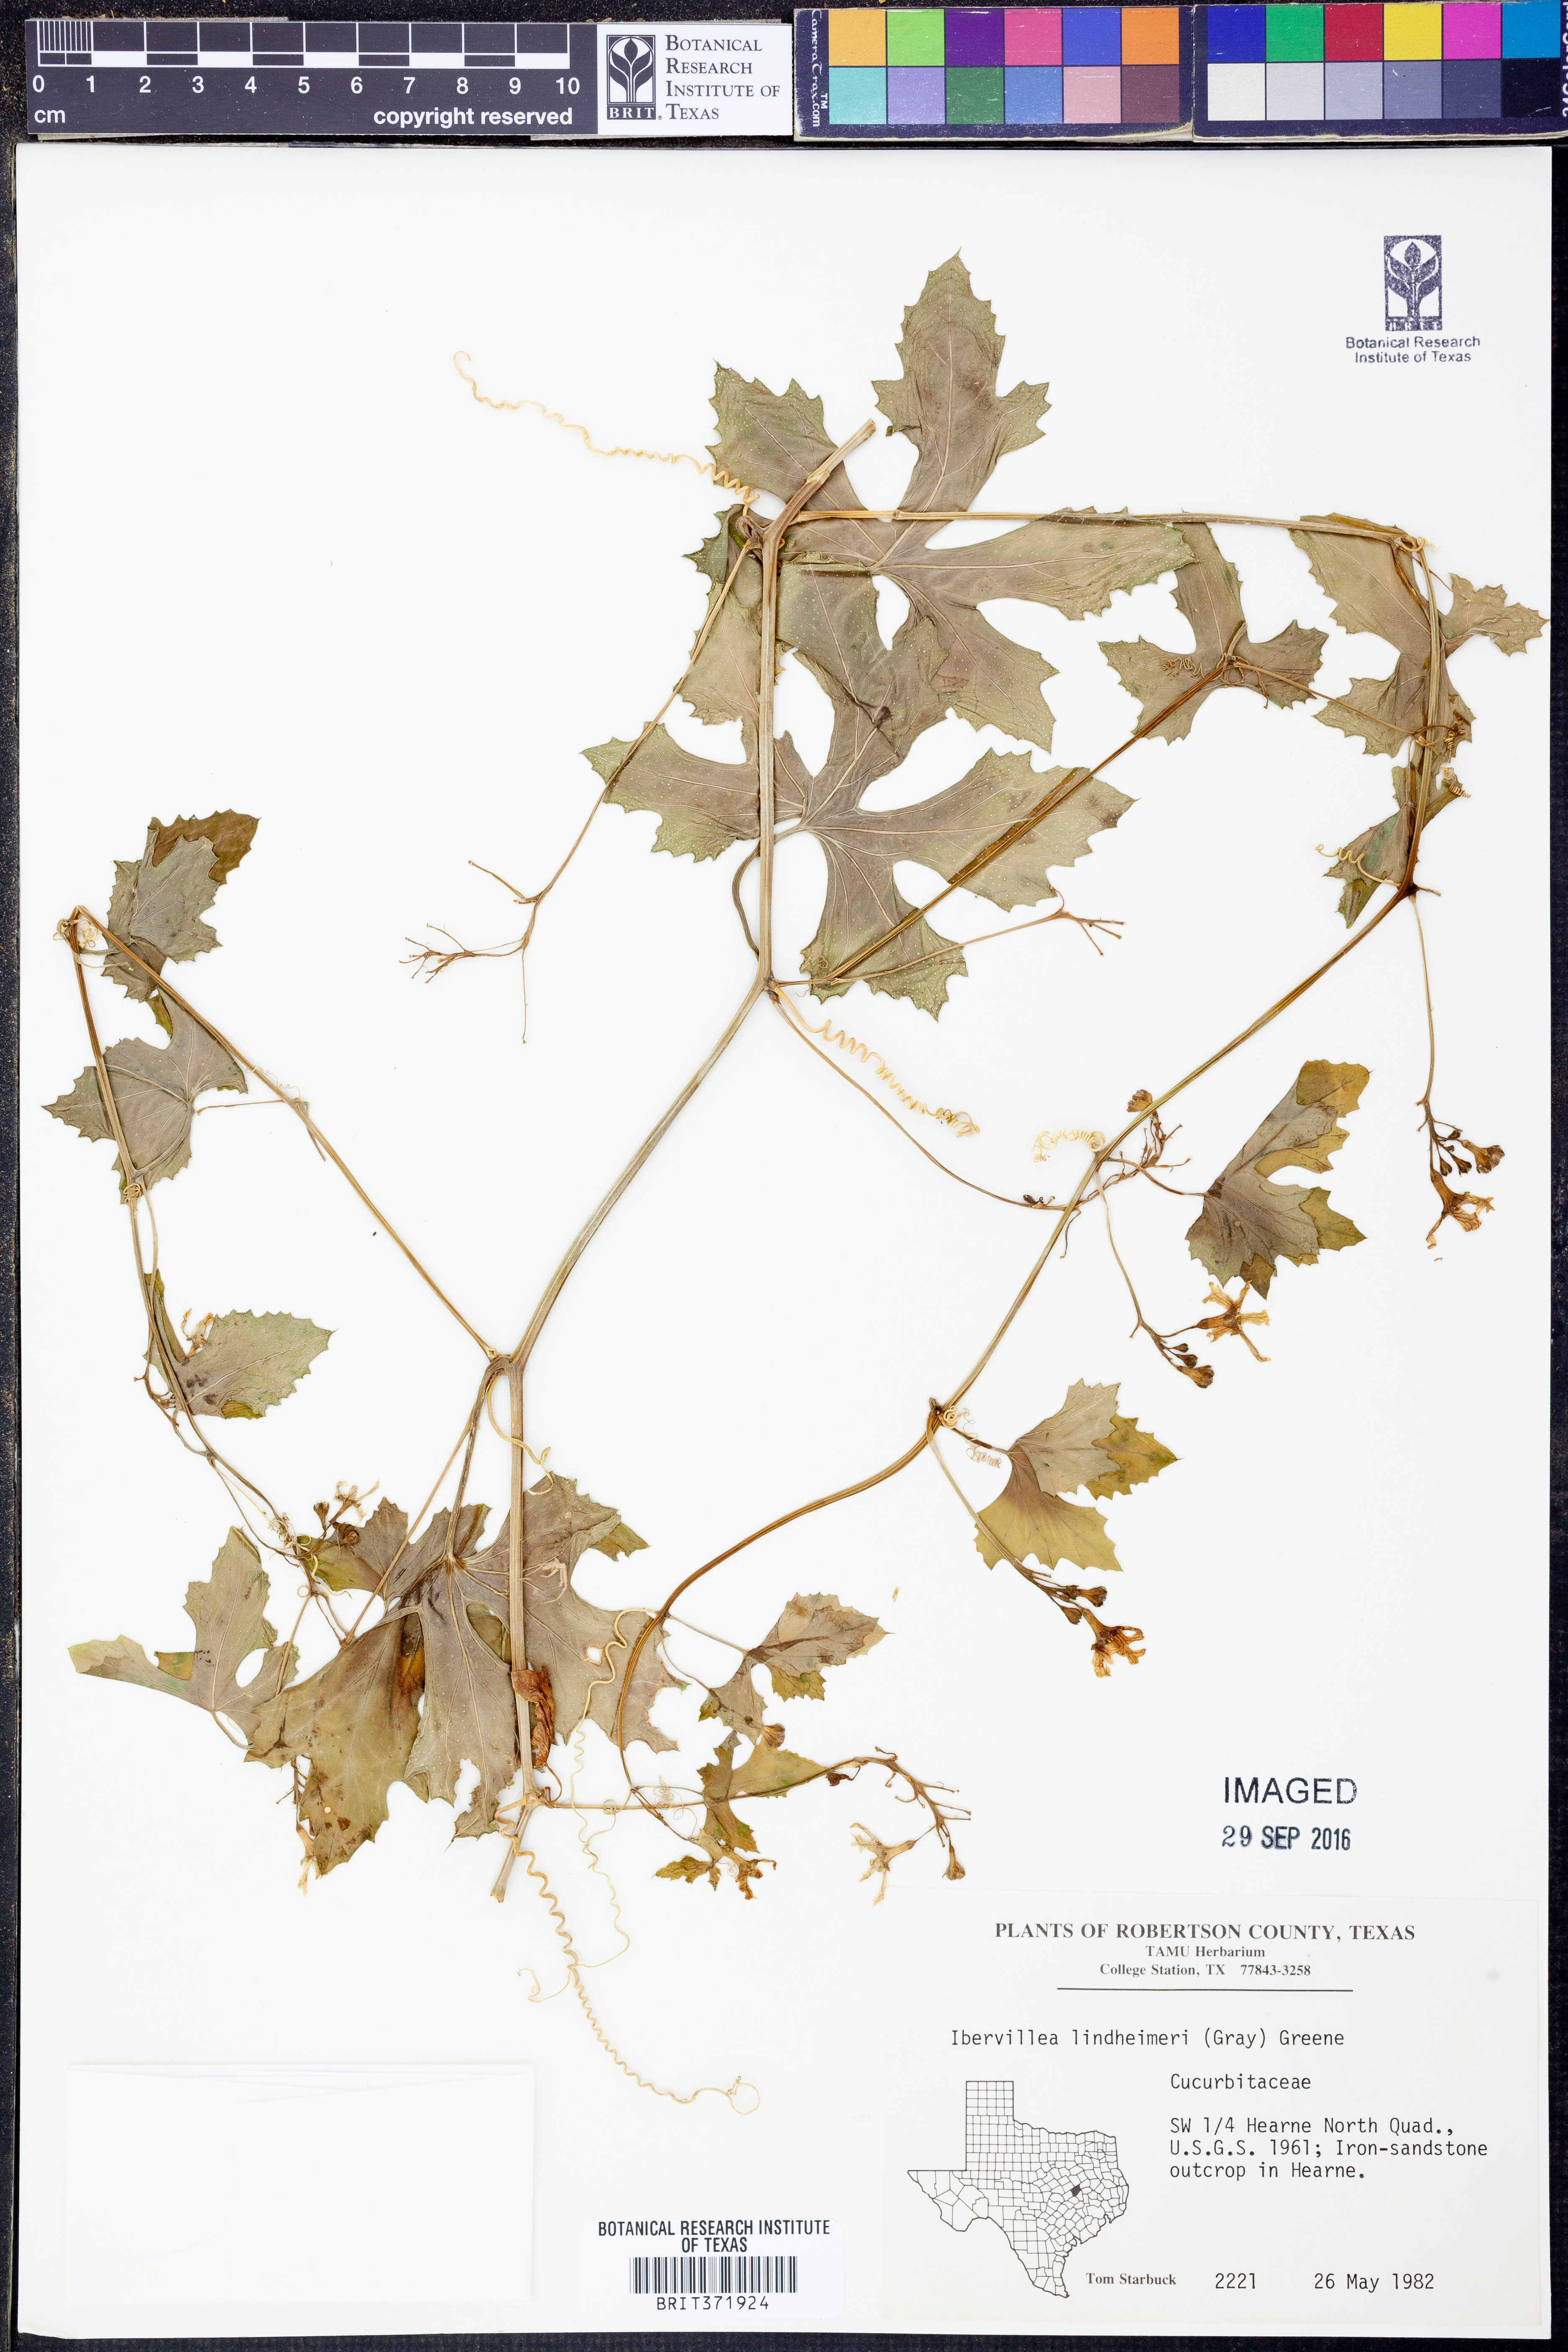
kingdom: Plantae
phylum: Tracheophyta
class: Magnoliopsida
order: Cucurbitales
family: Cucurbitaceae
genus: Ibervillea
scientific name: Ibervillea lindheimeri
